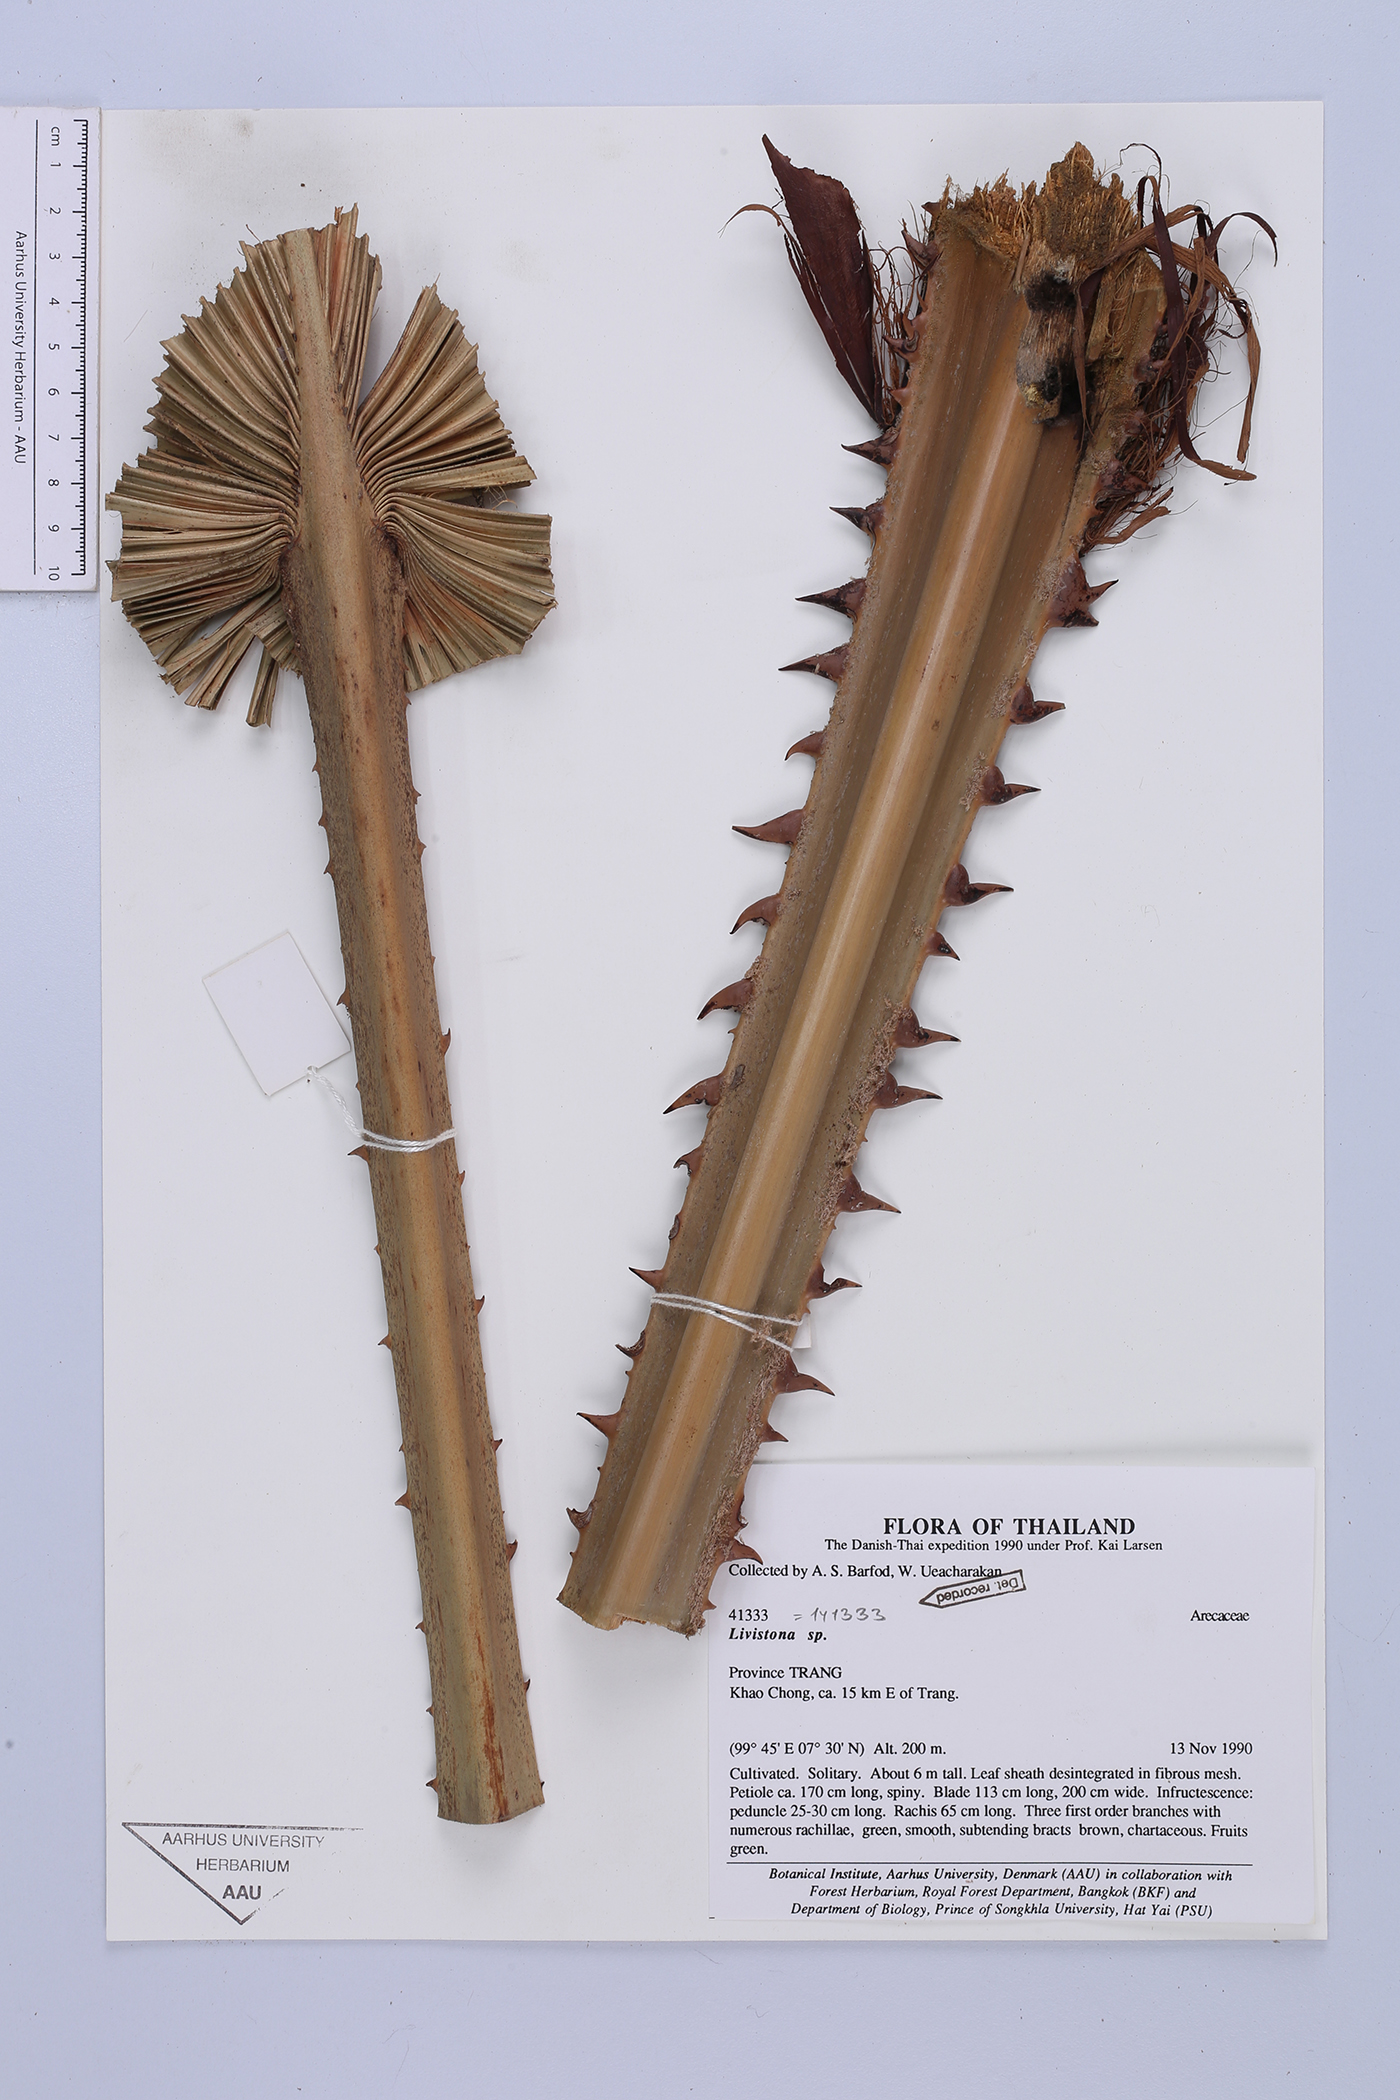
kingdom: Plantae
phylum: Tracheophyta
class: Liliopsida
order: Arecales
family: Arecaceae
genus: Livistona
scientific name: Livistona speciosa
